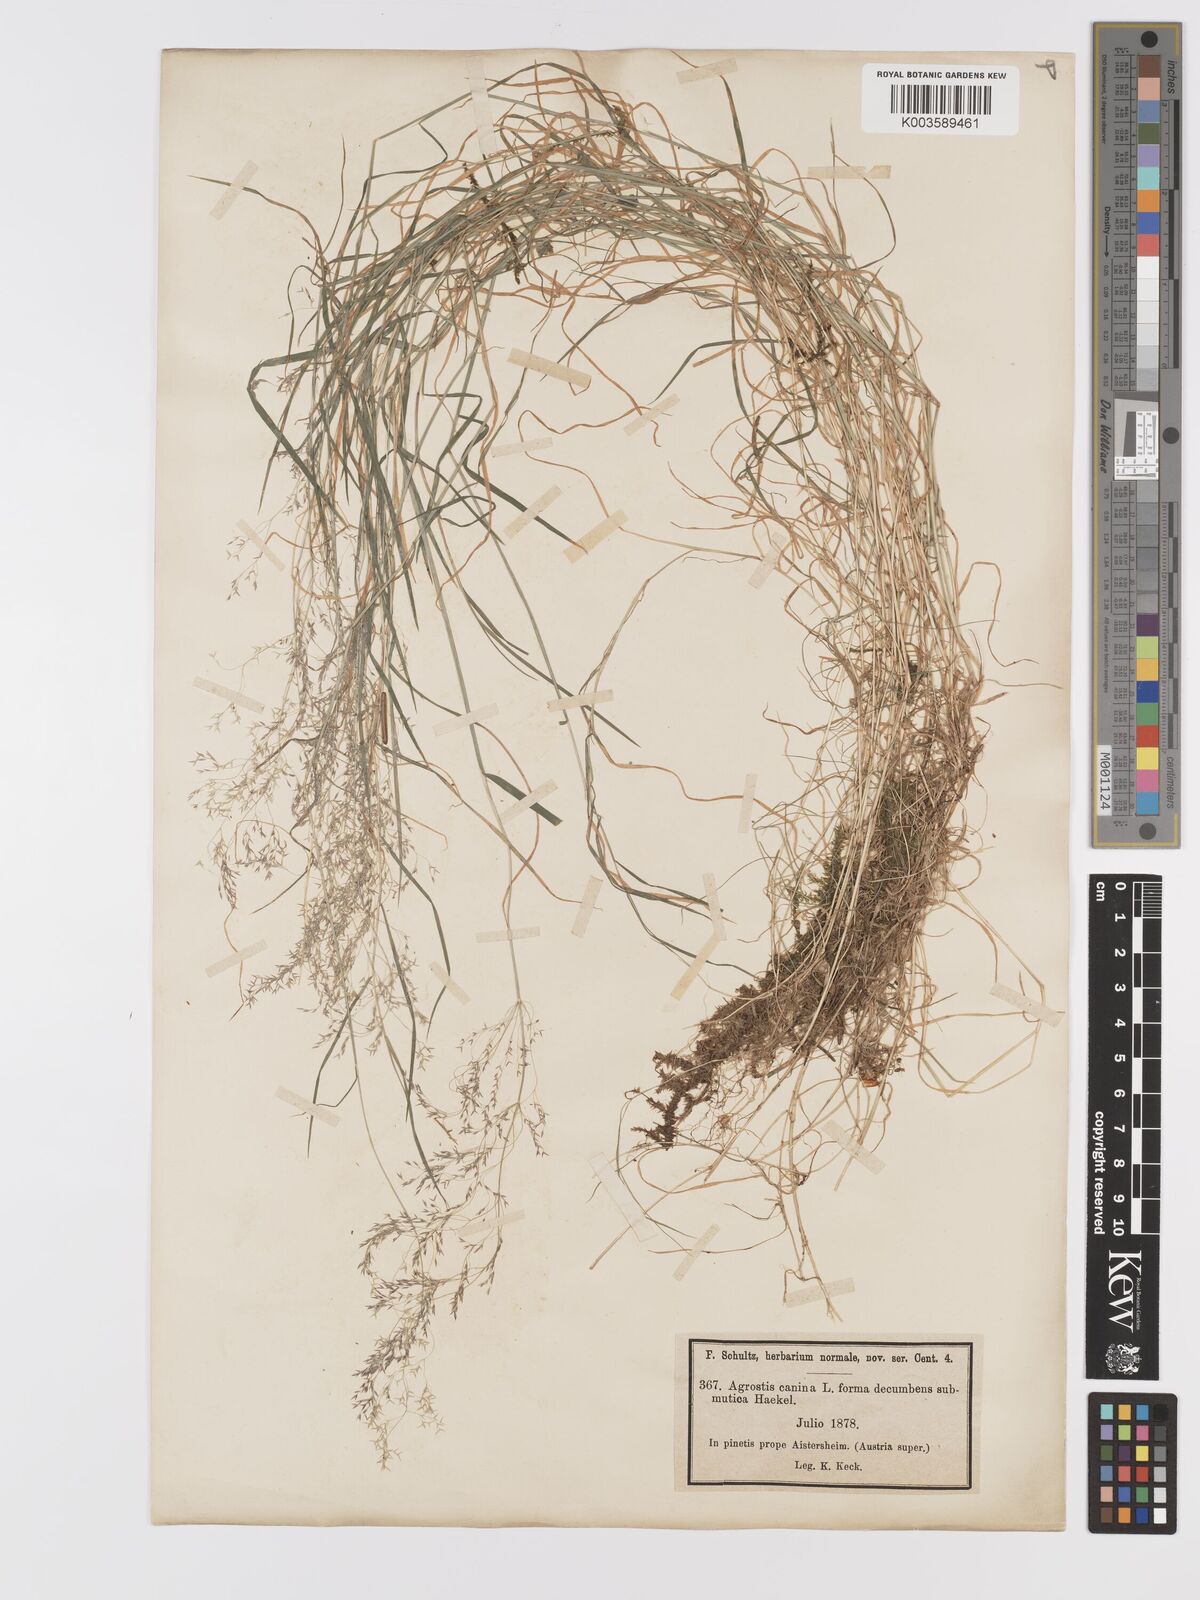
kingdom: Plantae
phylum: Tracheophyta
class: Liliopsida
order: Poales
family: Poaceae
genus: Agrostis
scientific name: Agrostis canina
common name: Velvet bent
